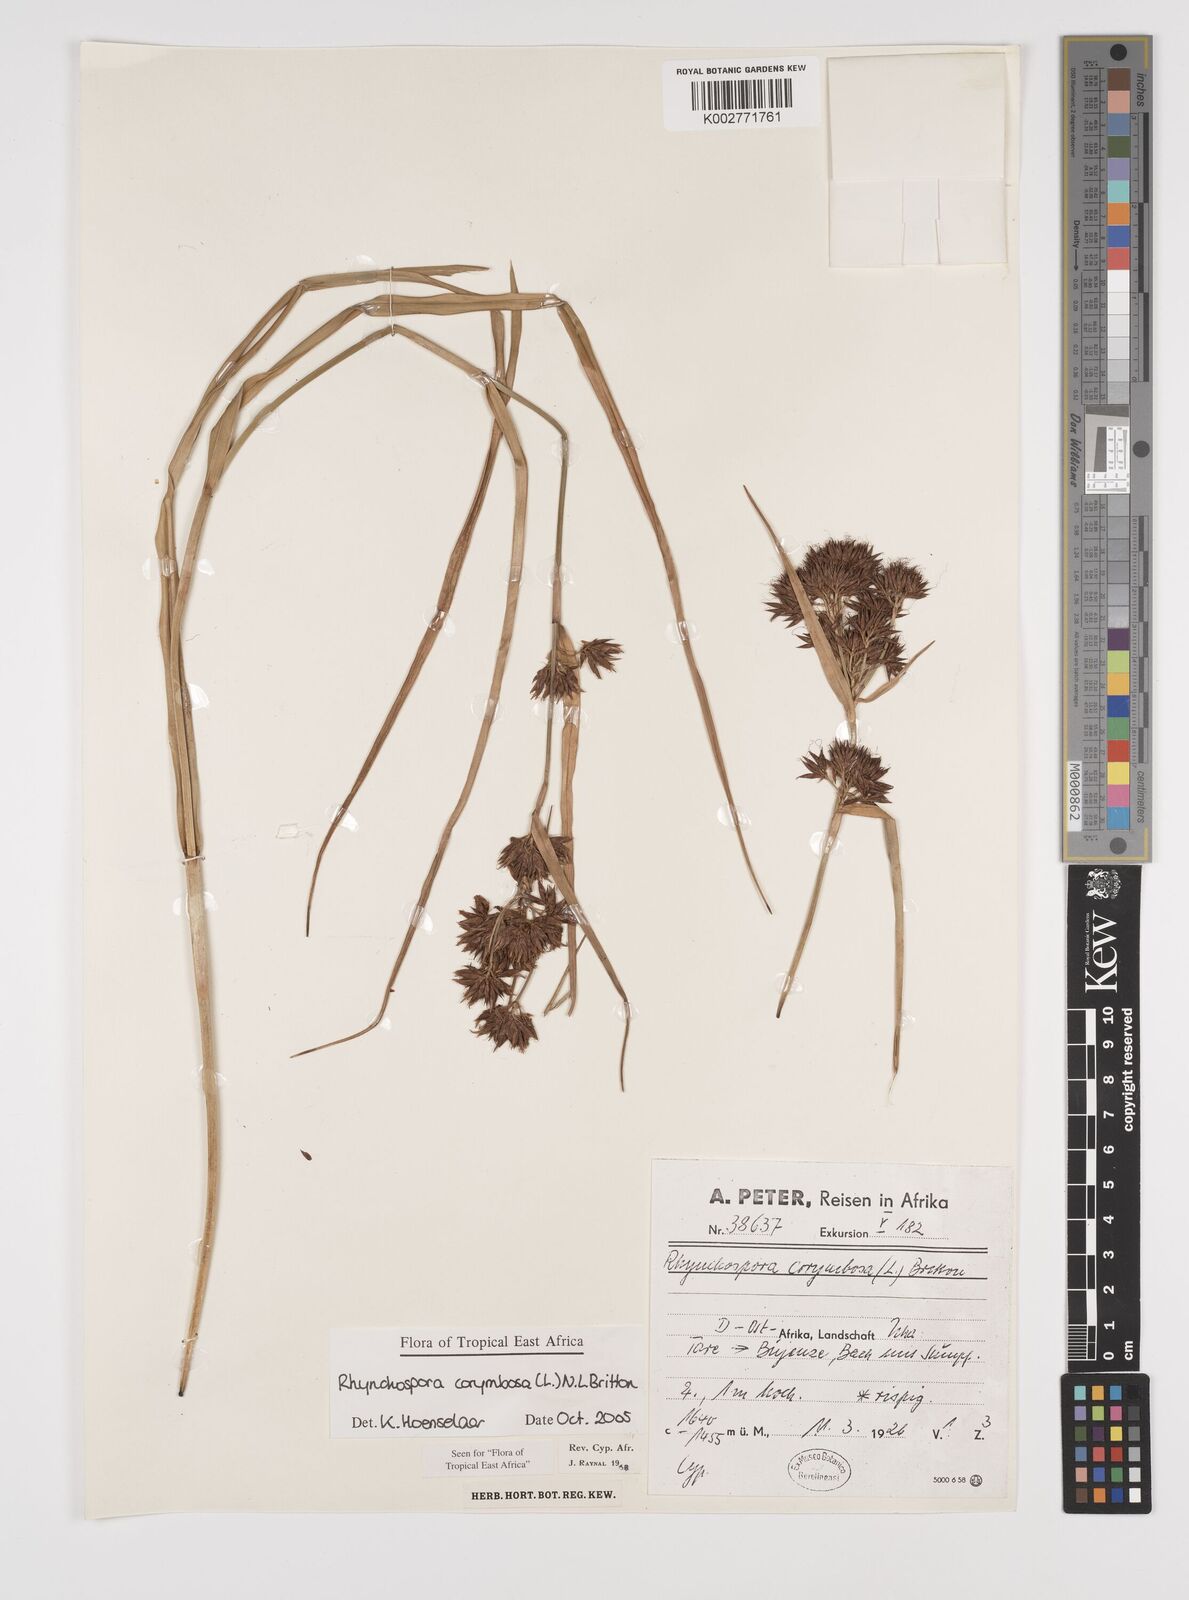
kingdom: Plantae
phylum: Tracheophyta
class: Liliopsida
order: Poales
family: Cyperaceae
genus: Rhynchospora
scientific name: Rhynchospora corymbosa
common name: Golden beak sedge
